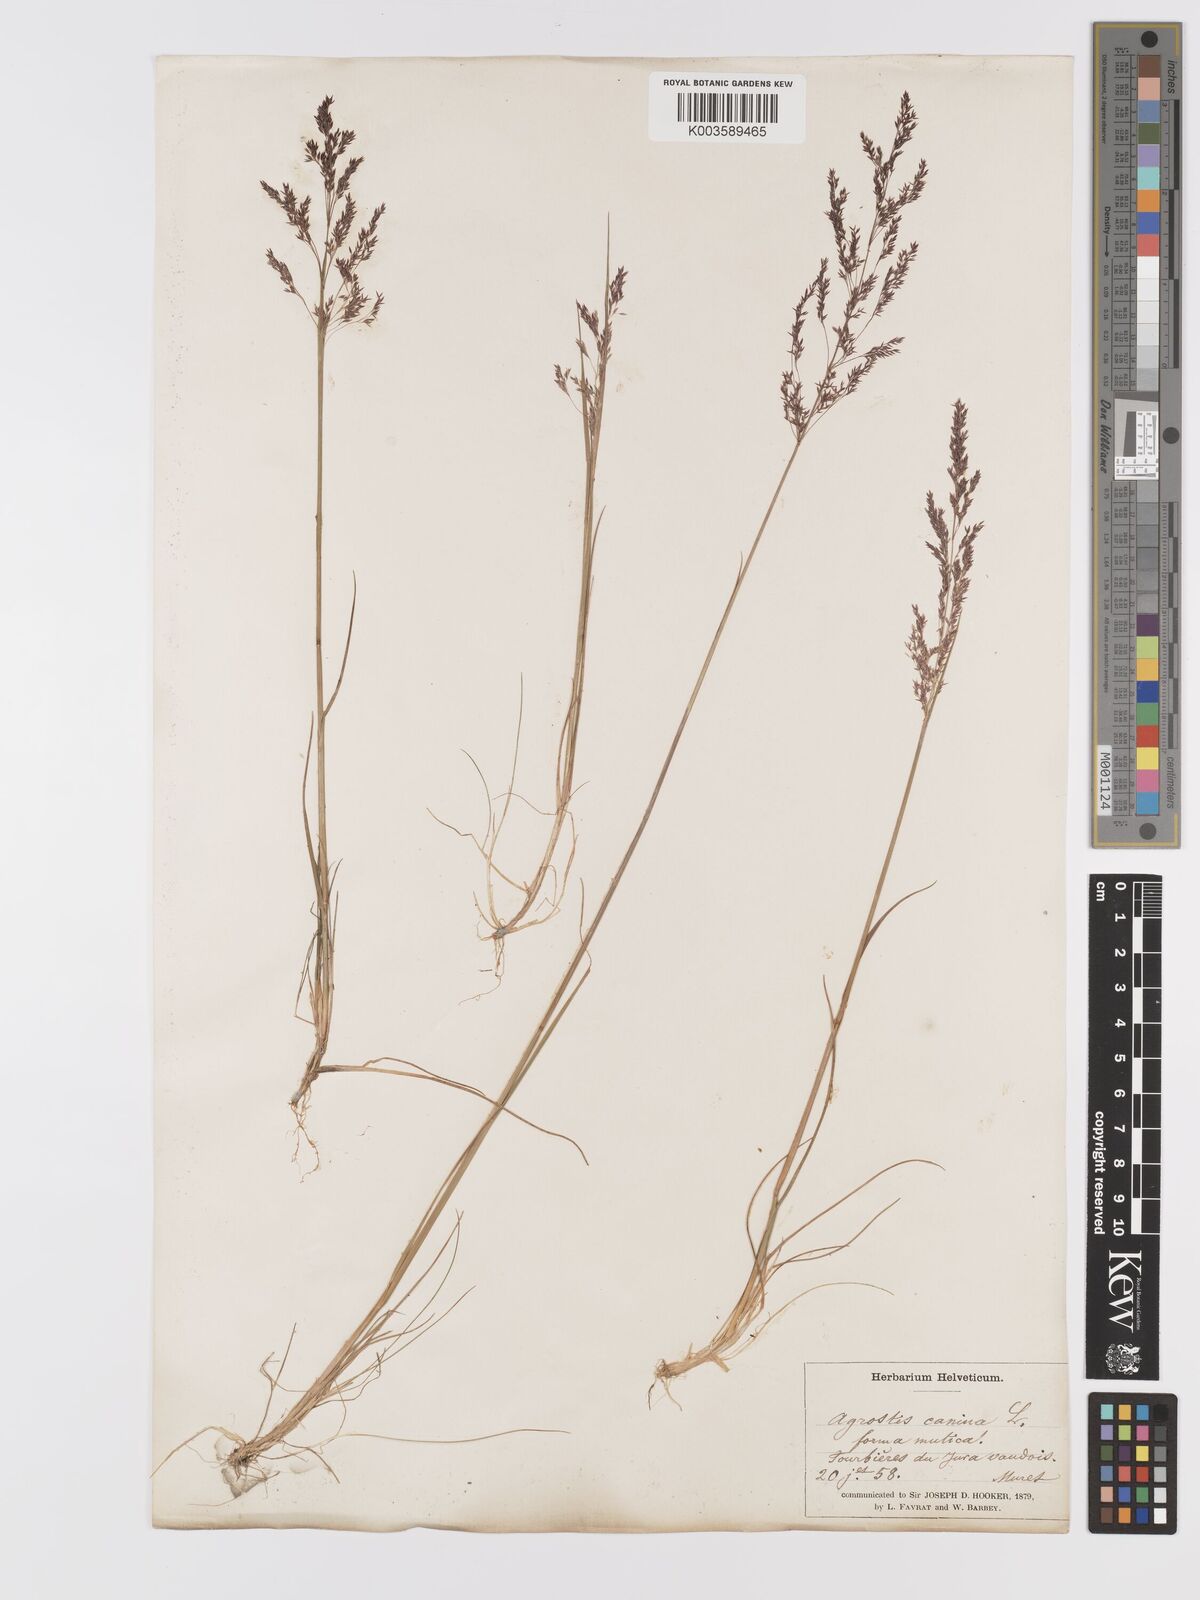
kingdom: Plantae
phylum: Tracheophyta
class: Liliopsida
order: Poales
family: Poaceae
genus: Agrostis
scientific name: Agrostis canina
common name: Velvet bent
